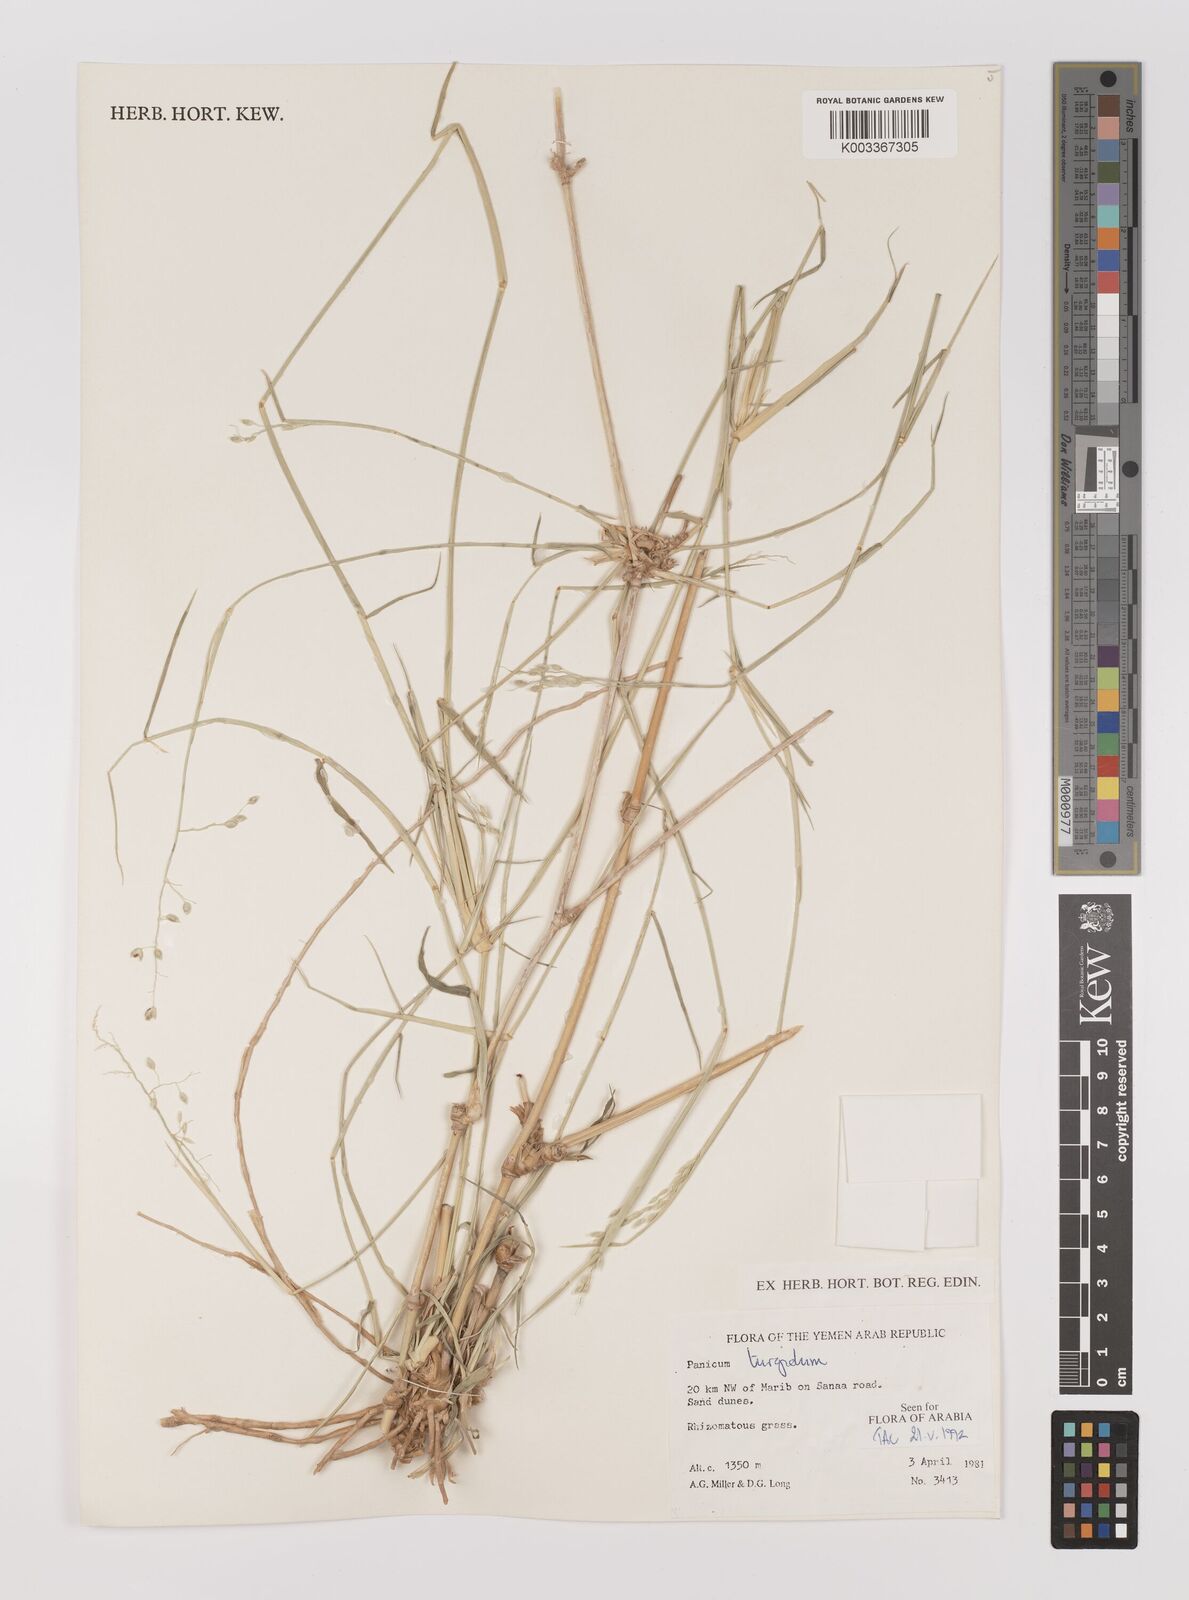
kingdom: Plantae
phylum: Tracheophyta
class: Liliopsida
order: Poales
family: Poaceae
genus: Panicum
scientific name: Panicum turgidum
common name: Desert grass
